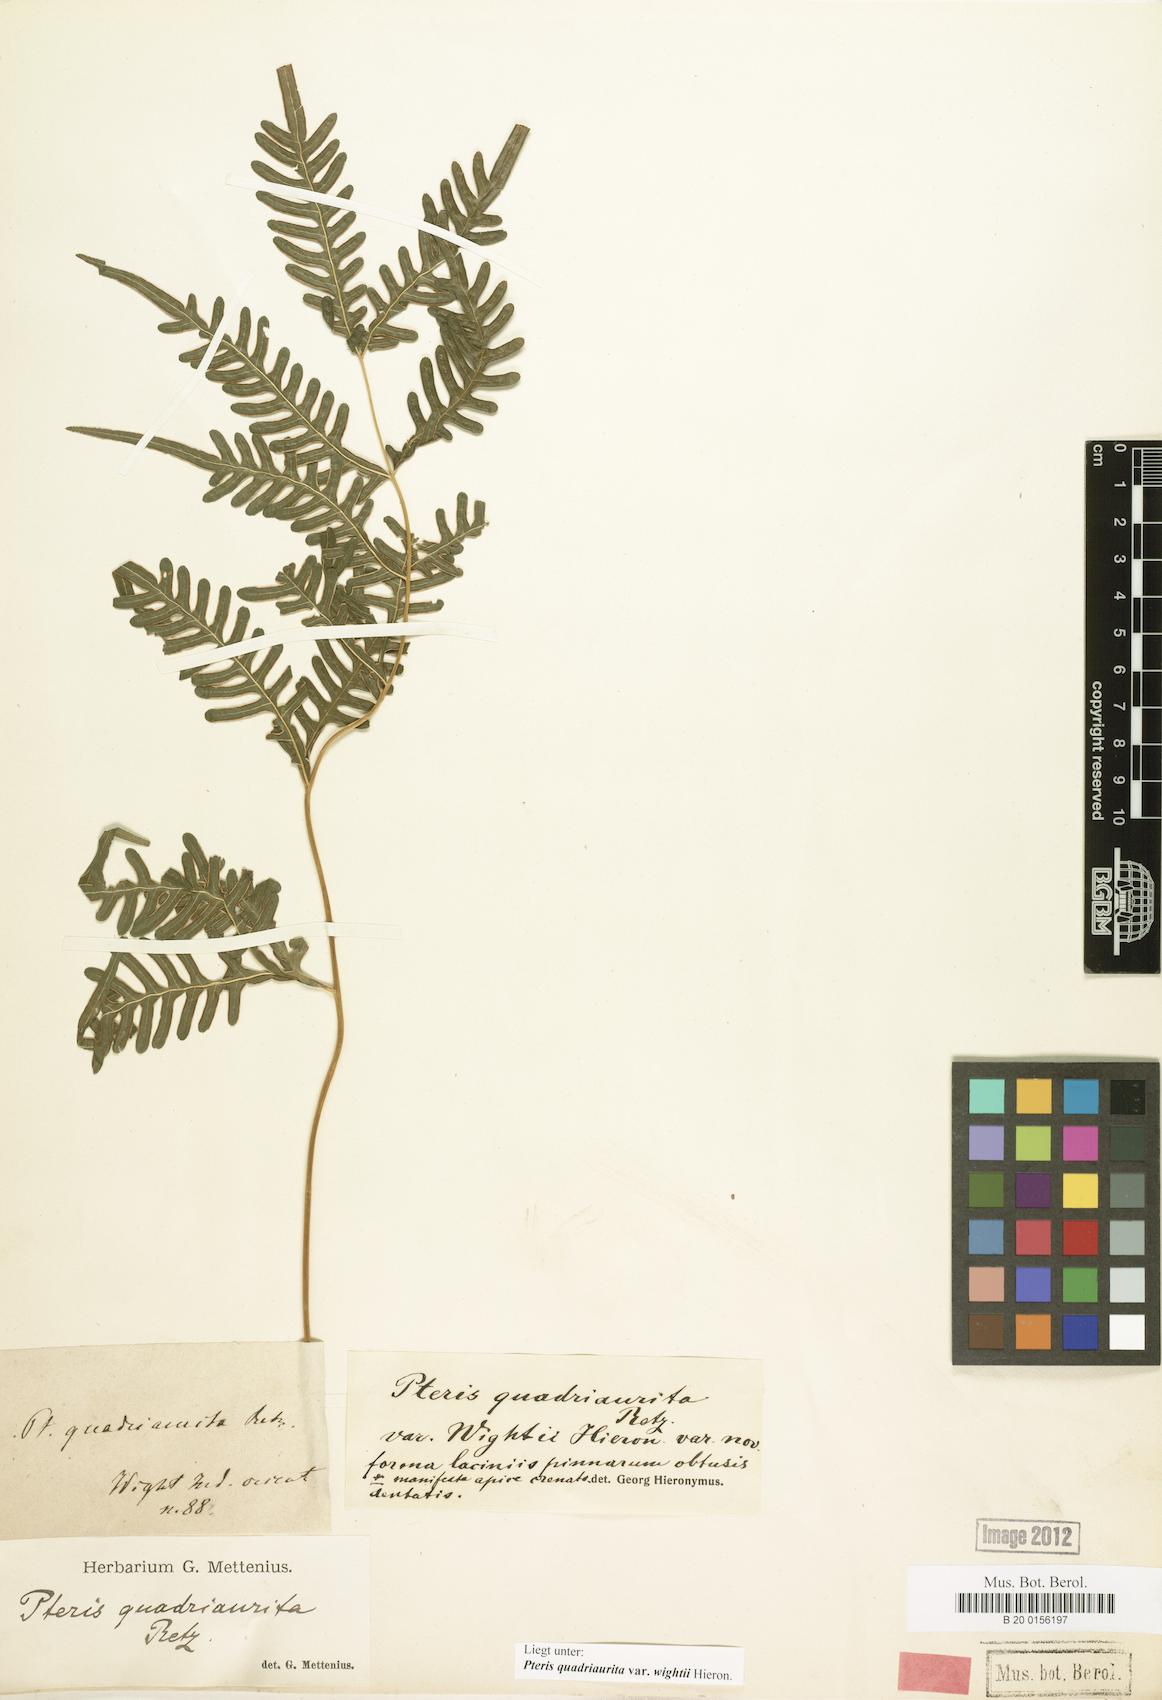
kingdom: Plantae
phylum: Tracheophyta
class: Polypodiopsida
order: Polypodiales
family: Pteridaceae
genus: Pteris
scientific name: Pteris quadriaurita
